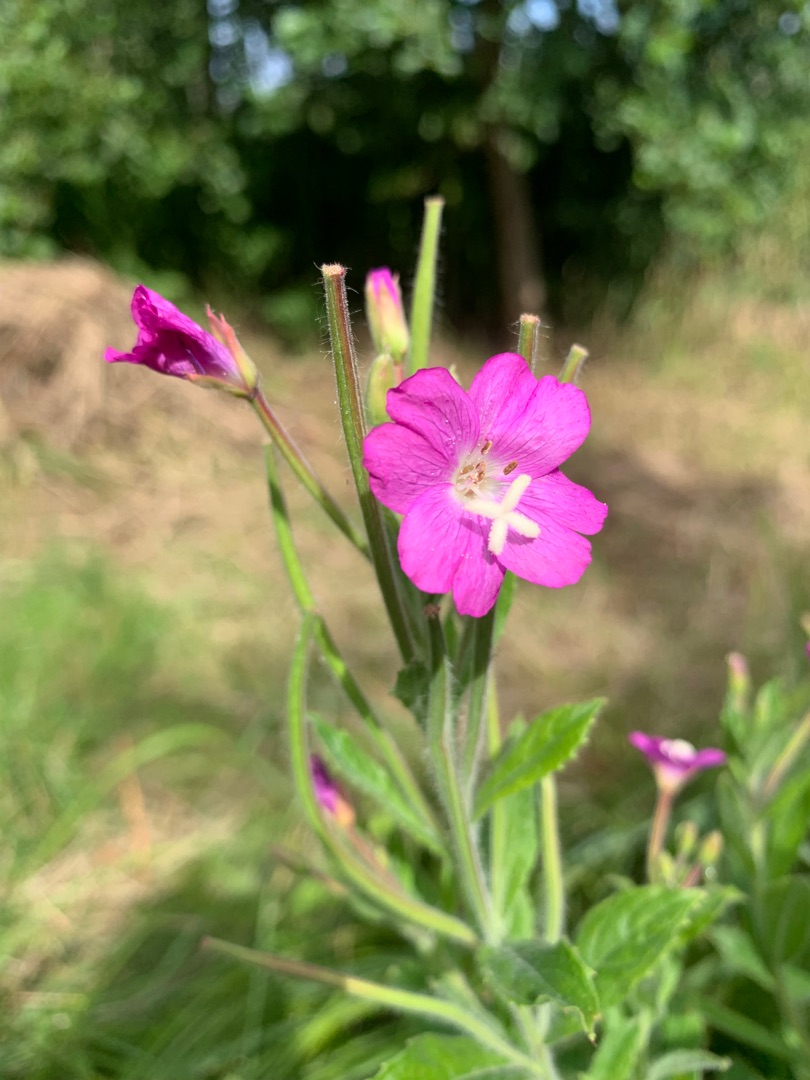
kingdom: Plantae
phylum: Tracheophyta
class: Magnoliopsida
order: Myrtales
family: Onagraceae
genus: Epilobium
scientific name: Epilobium hirsutum
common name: Lådden dueurt
